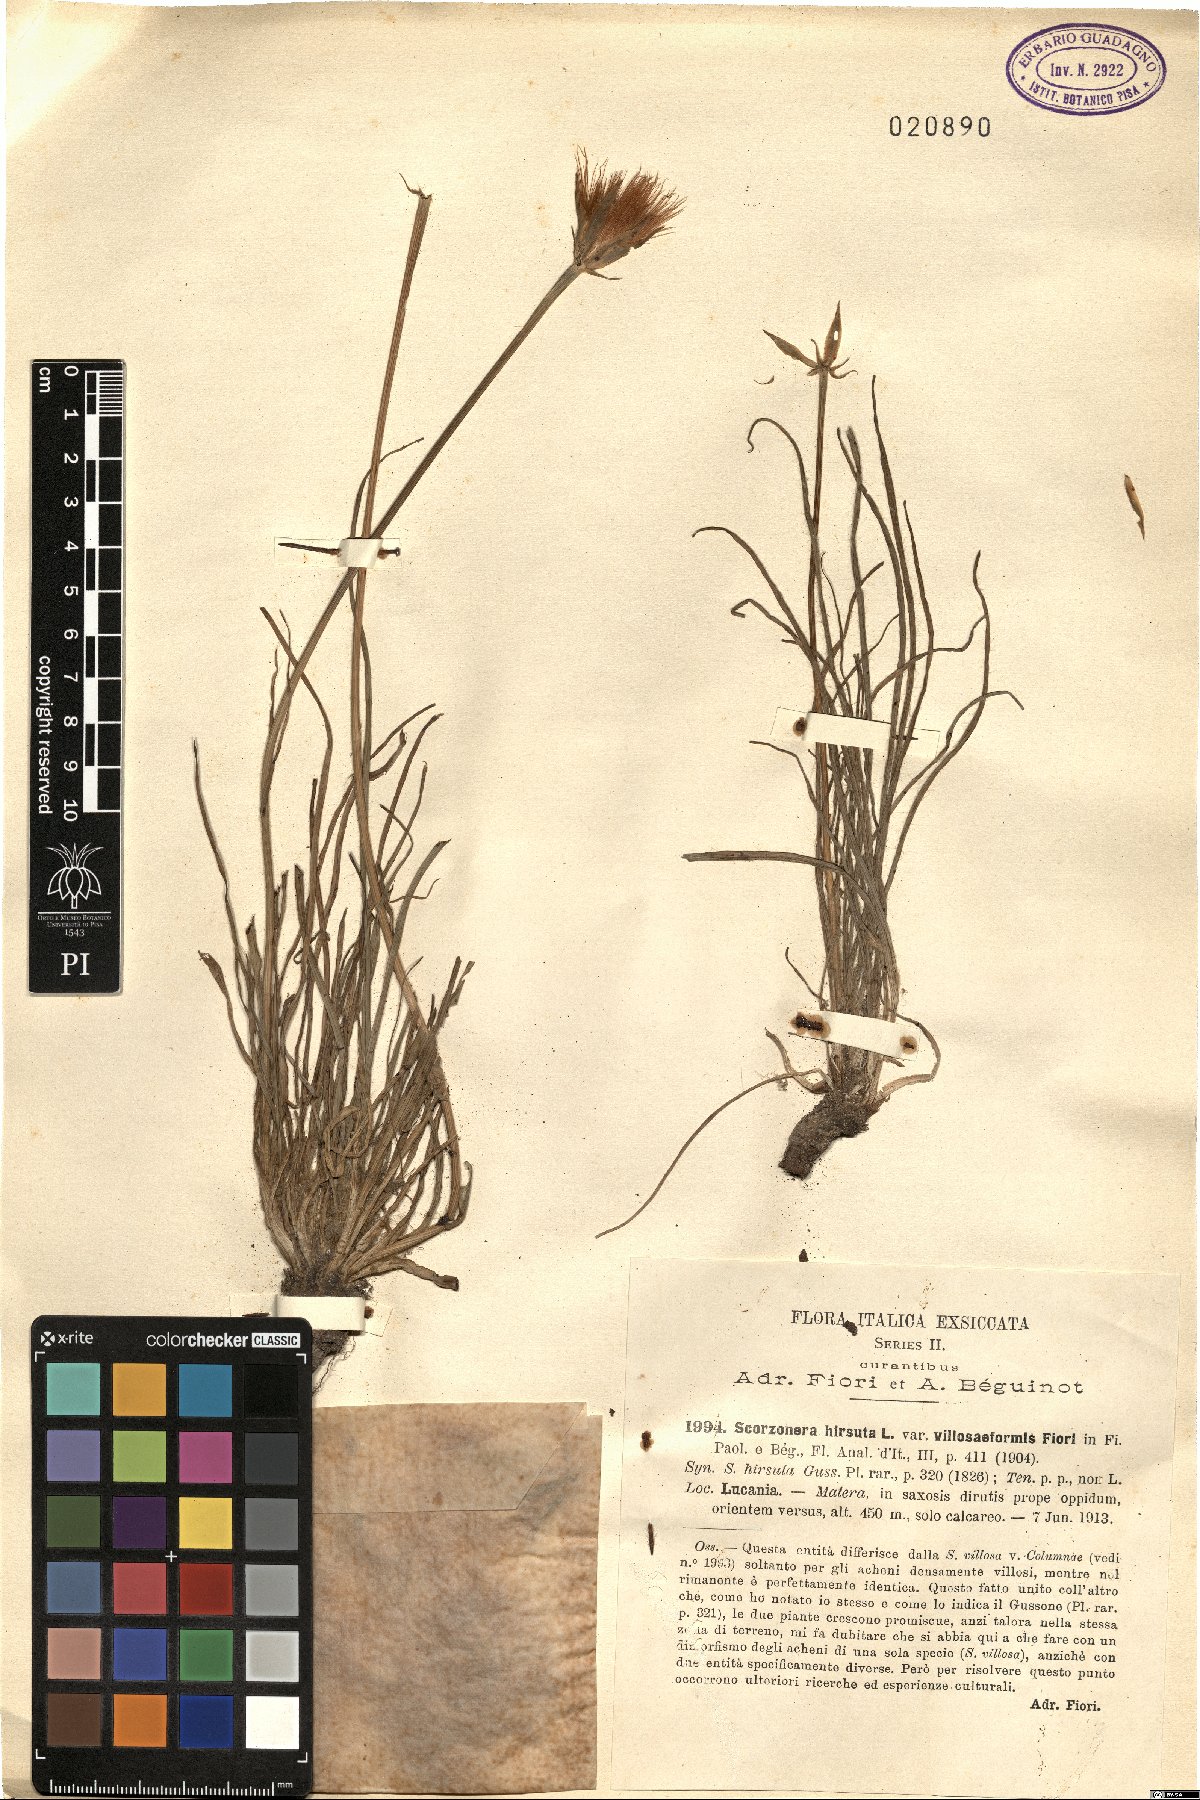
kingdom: Plantae
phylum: Tracheophyta
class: Magnoliopsida
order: Asterales
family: Asteraceae
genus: Gelasia
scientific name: Gelasia villosa
